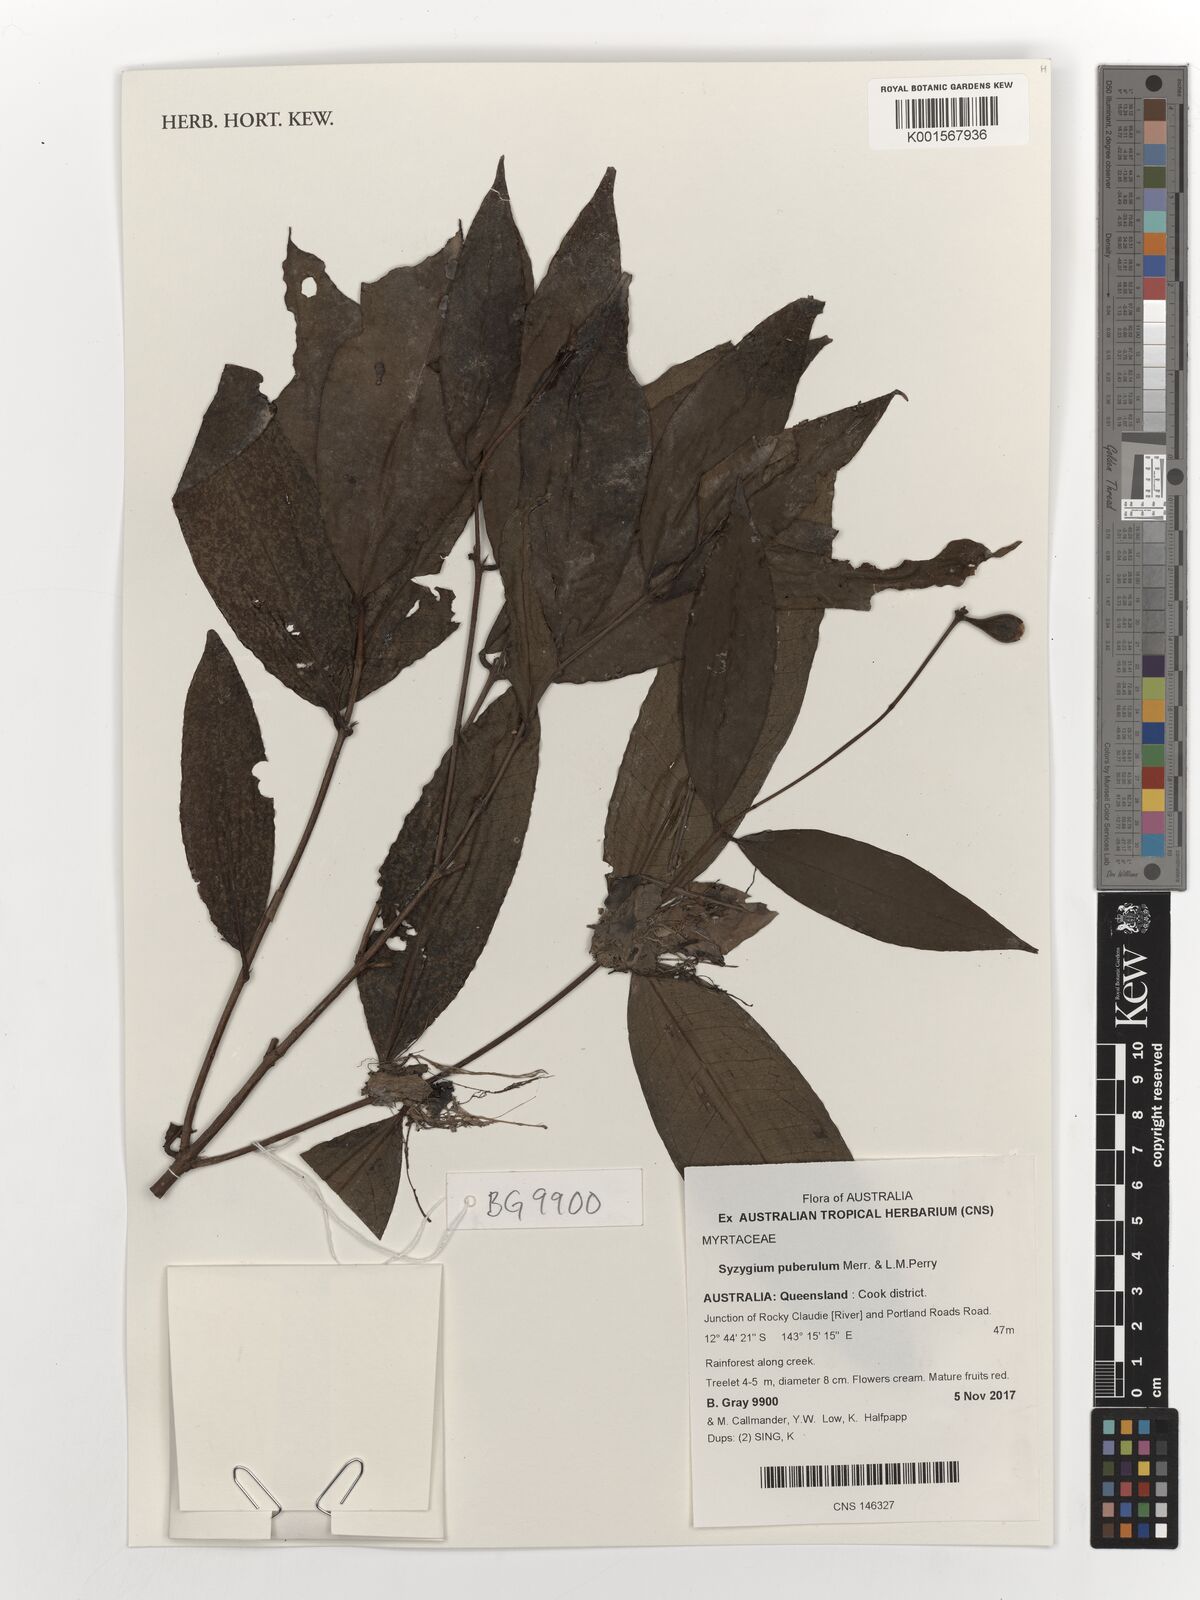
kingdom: Plantae
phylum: Tracheophyta
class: Magnoliopsida
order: Myrtales
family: Myrtaceae
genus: Syzygium
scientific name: Syzygium puberulum
